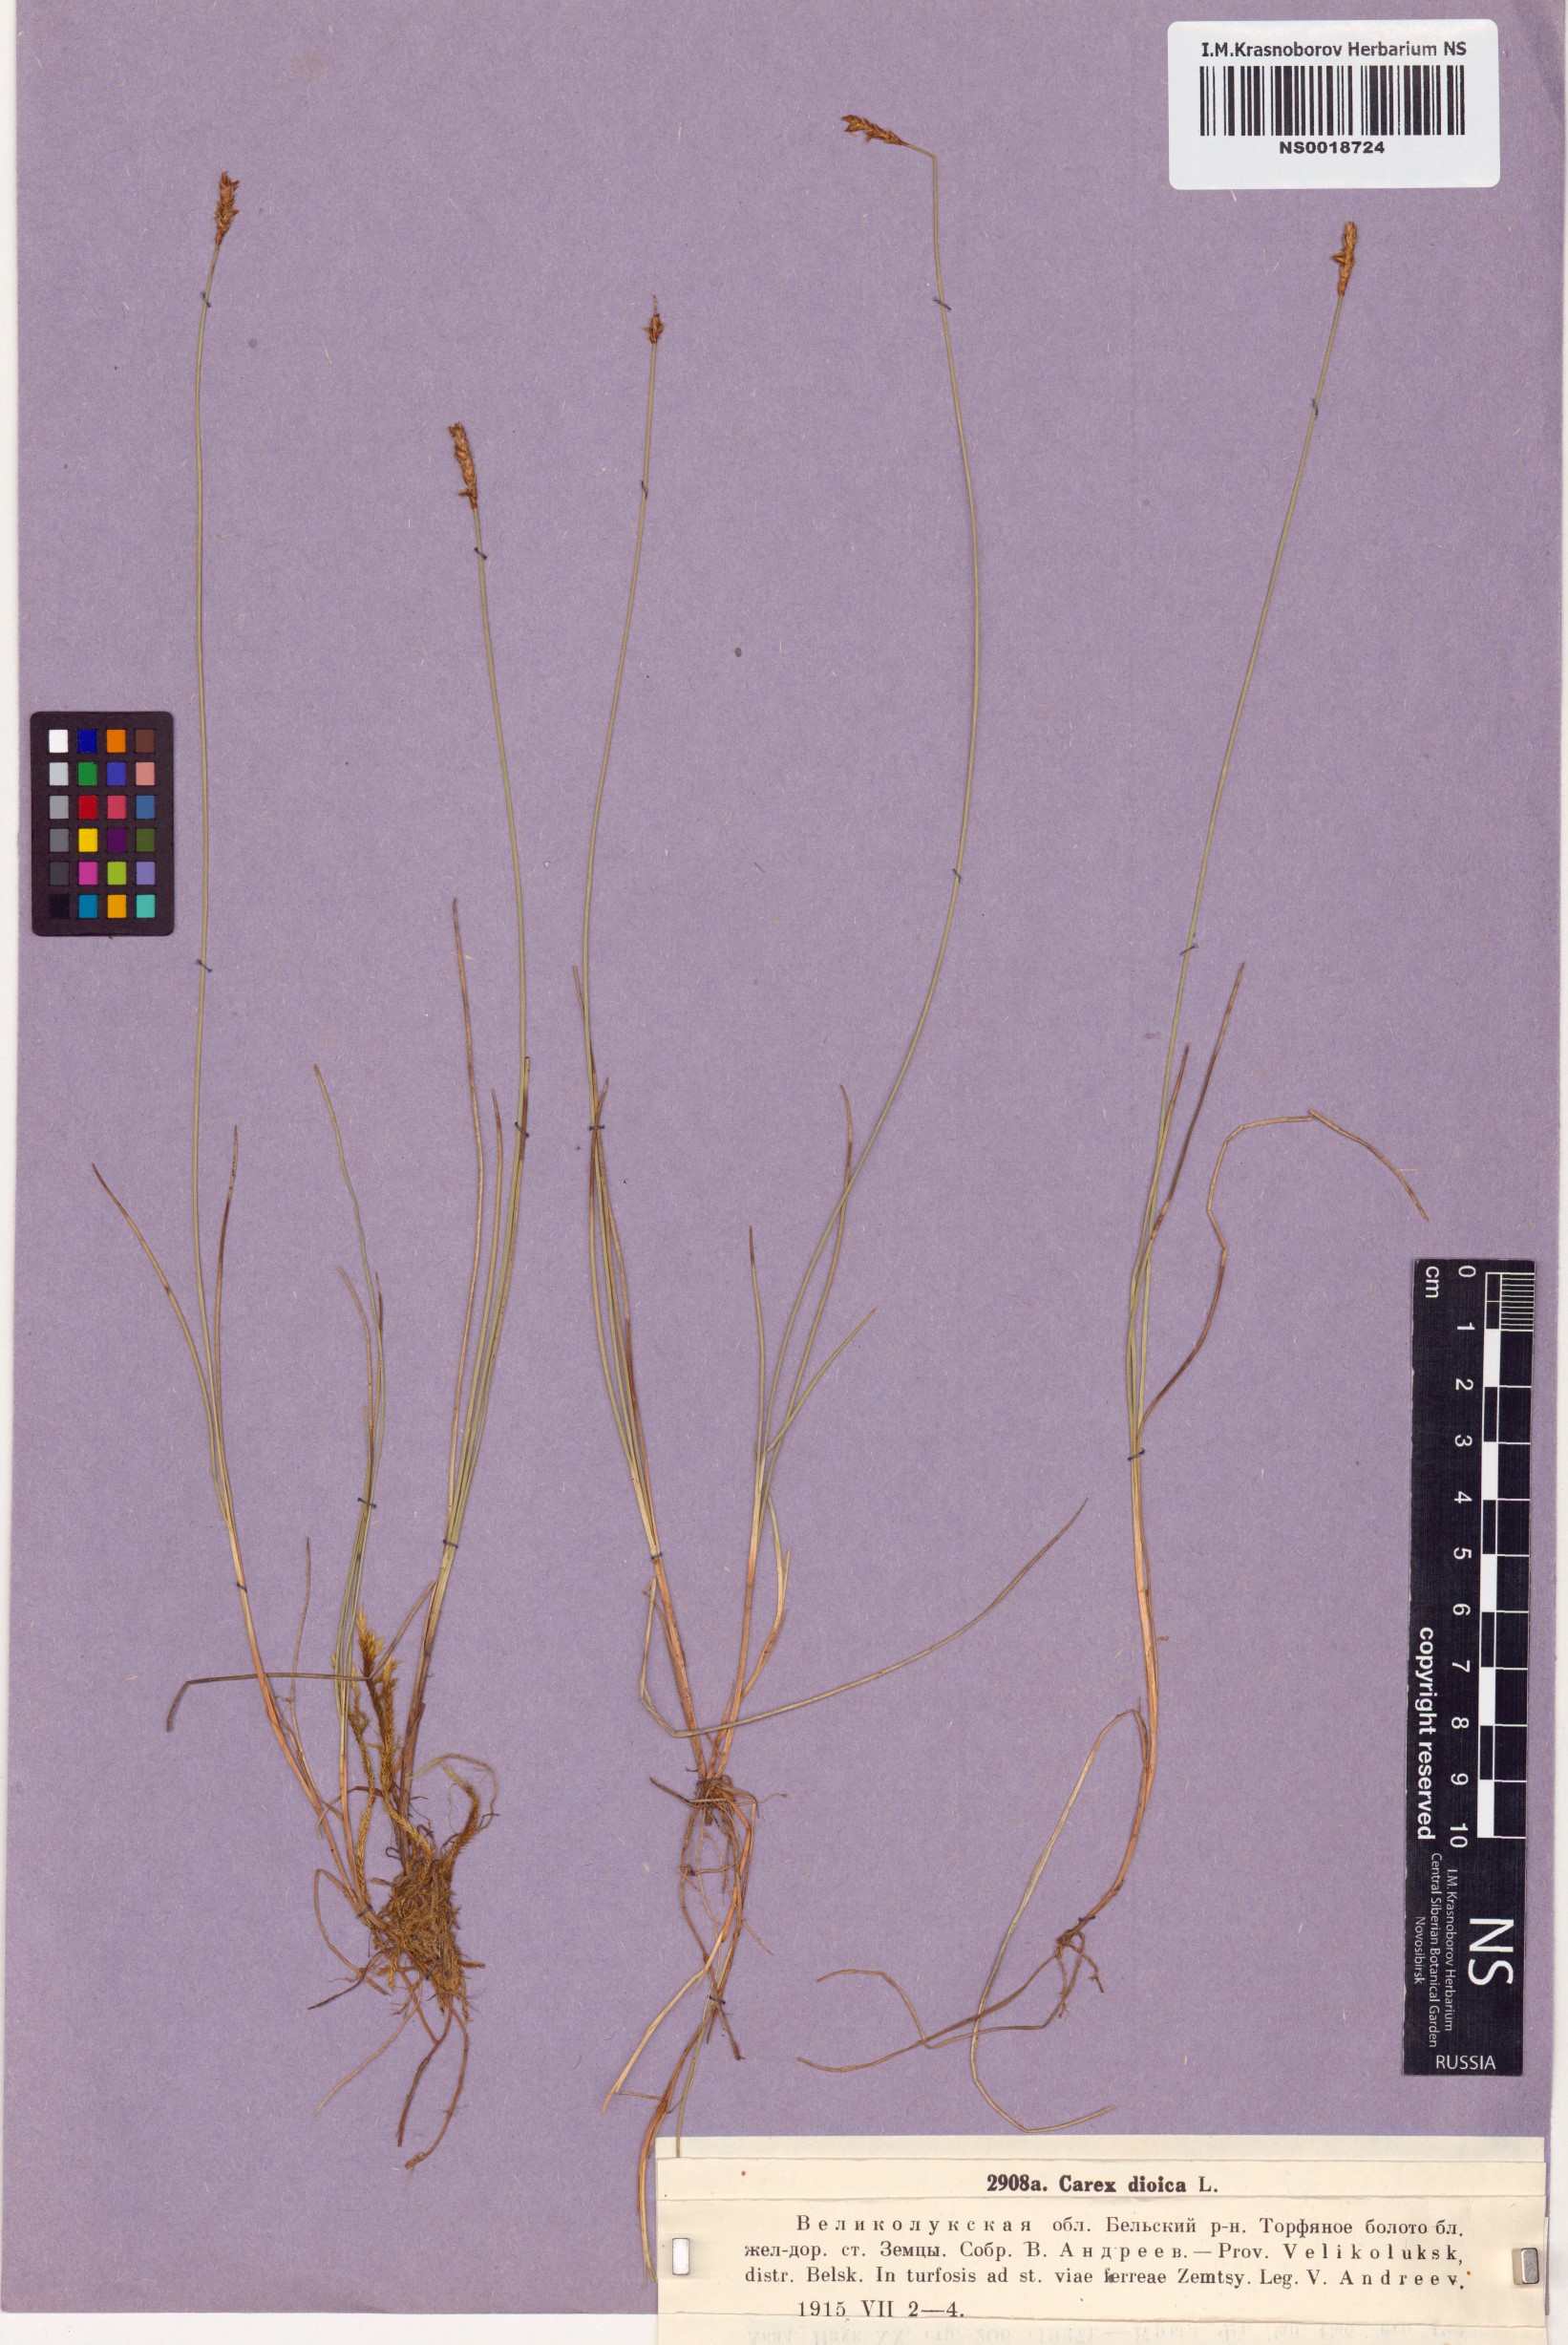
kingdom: Plantae
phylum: Tracheophyta
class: Liliopsida
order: Poales
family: Cyperaceae
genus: Carex
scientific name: Carex dioica
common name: Dioecious sedge
